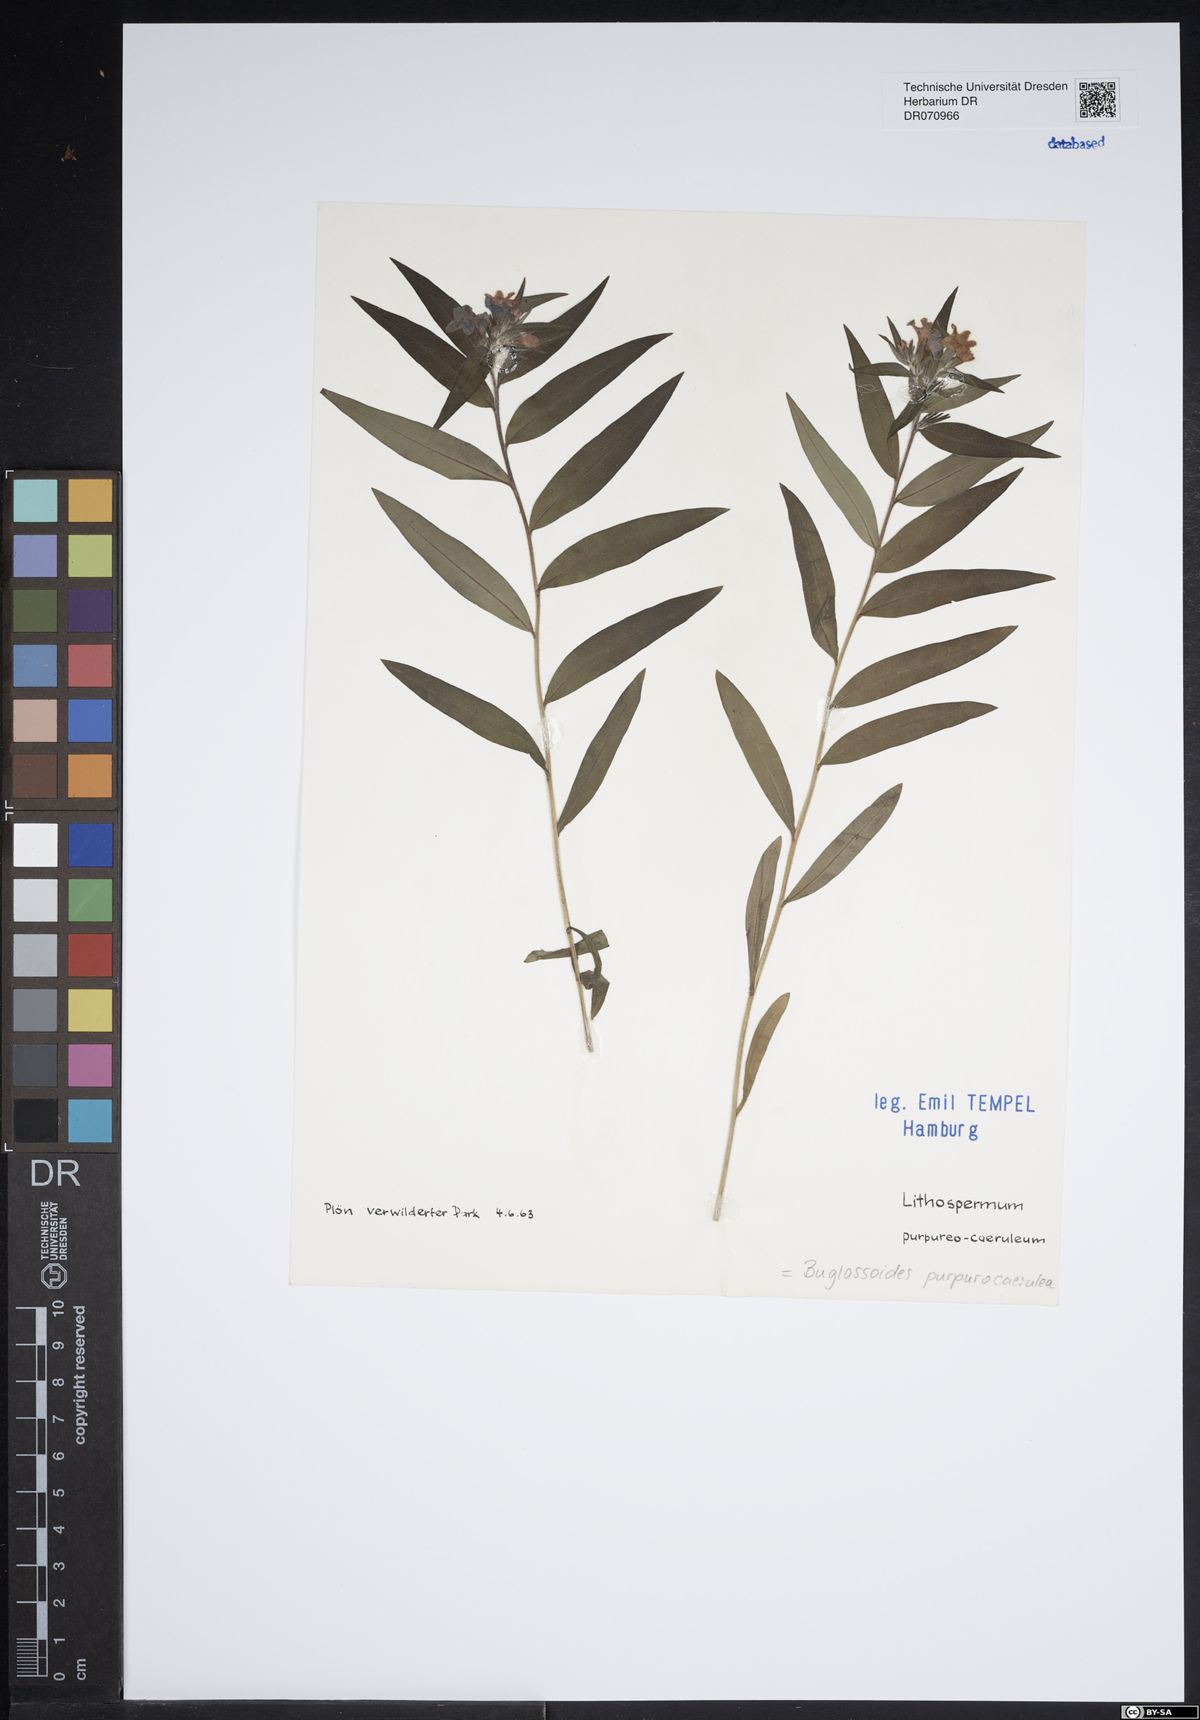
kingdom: Plantae
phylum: Tracheophyta
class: Magnoliopsida
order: Boraginales
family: Boraginaceae
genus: Aegonychon
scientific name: Aegonychon purpurocaeruleum
